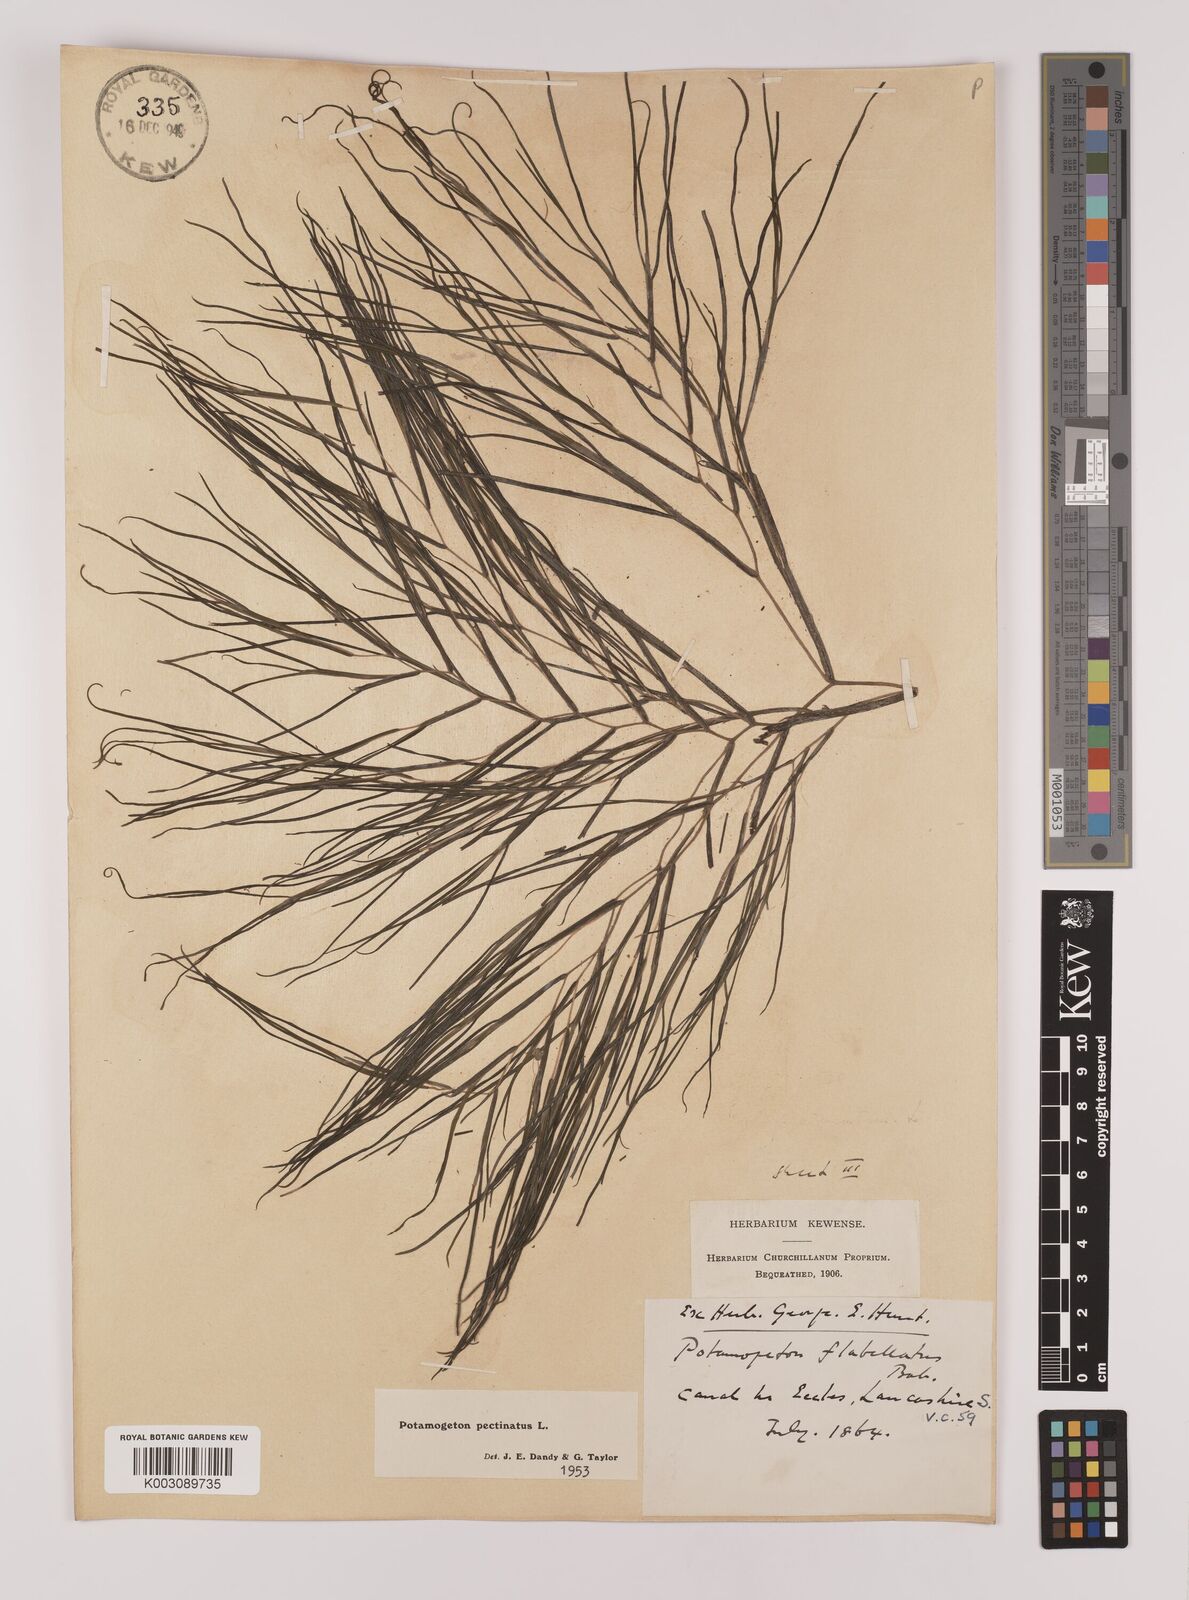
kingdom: Plantae
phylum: Tracheophyta
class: Liliopsida
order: Alismatales
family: Potamogetonaceae
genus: Stuckenia
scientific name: Stuckenia pectinata
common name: Sago pondweed
